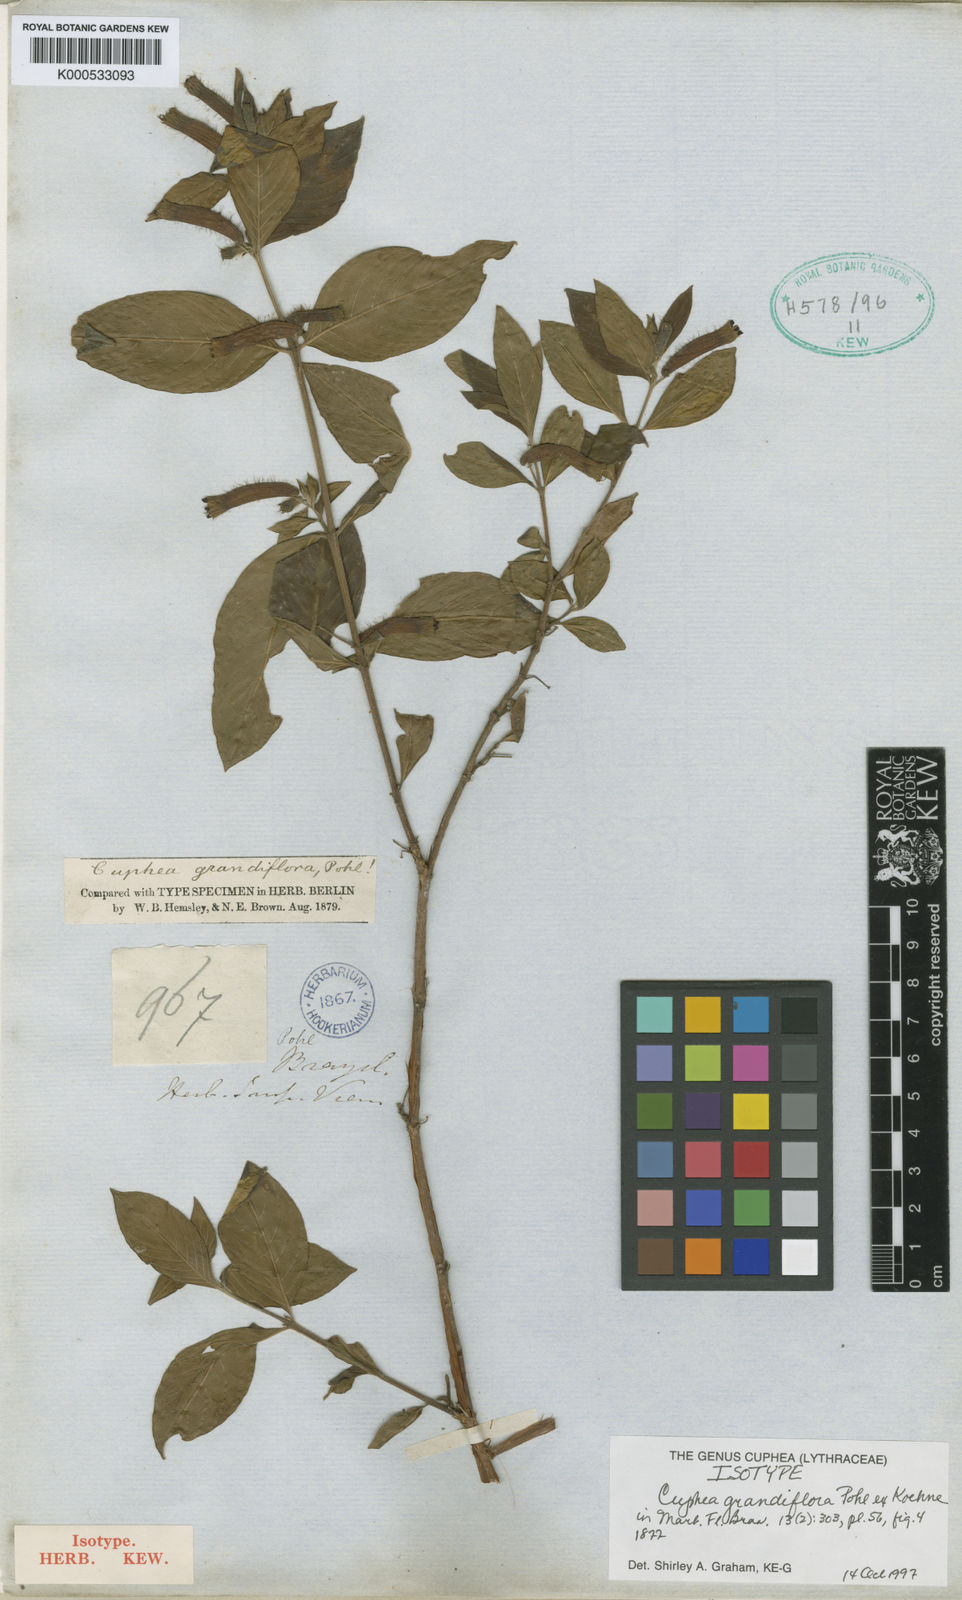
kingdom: Plantae
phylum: Tracheophyta
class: Magnoliopsida
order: Myrtales
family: Lythraceae
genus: Cuphea
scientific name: Cuphea grandiflora
